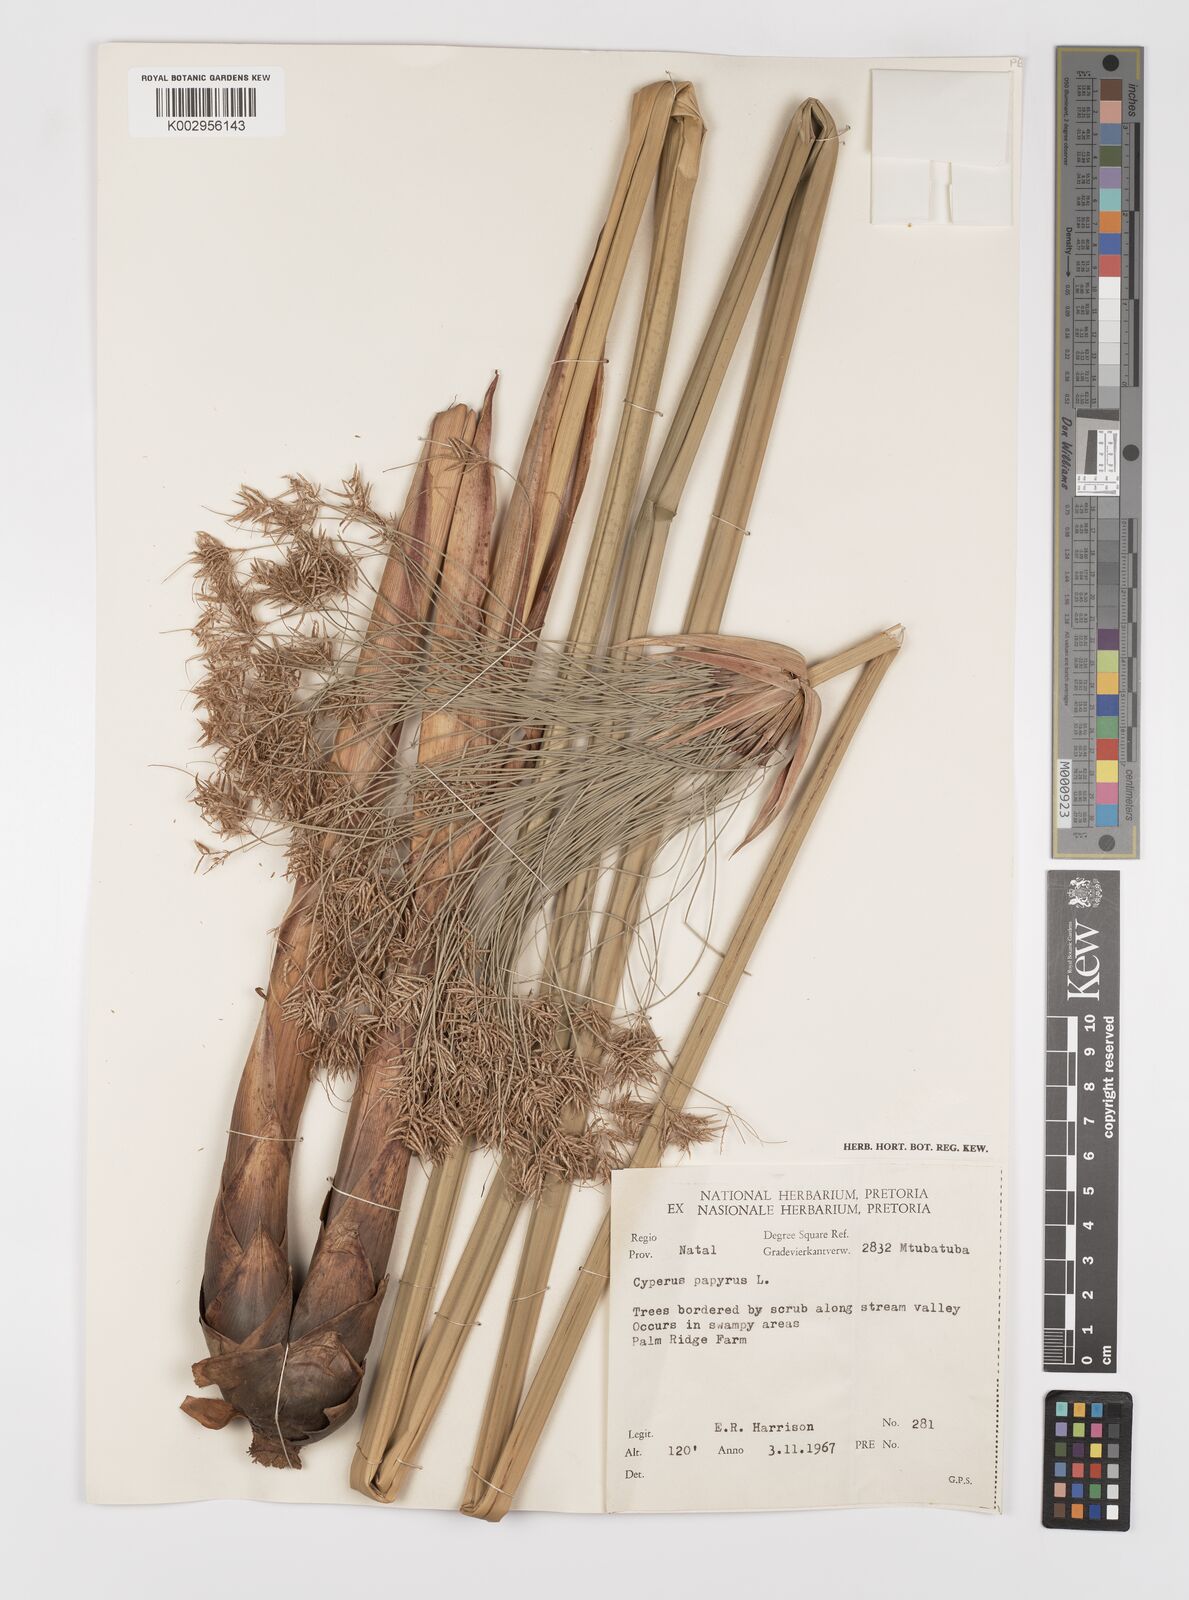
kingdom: Plantae
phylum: Tracheophyta
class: Liliopsida
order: Poales
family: Cyperaceae
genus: Cyperus
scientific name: Cyperus papyrus
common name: Papyrus
